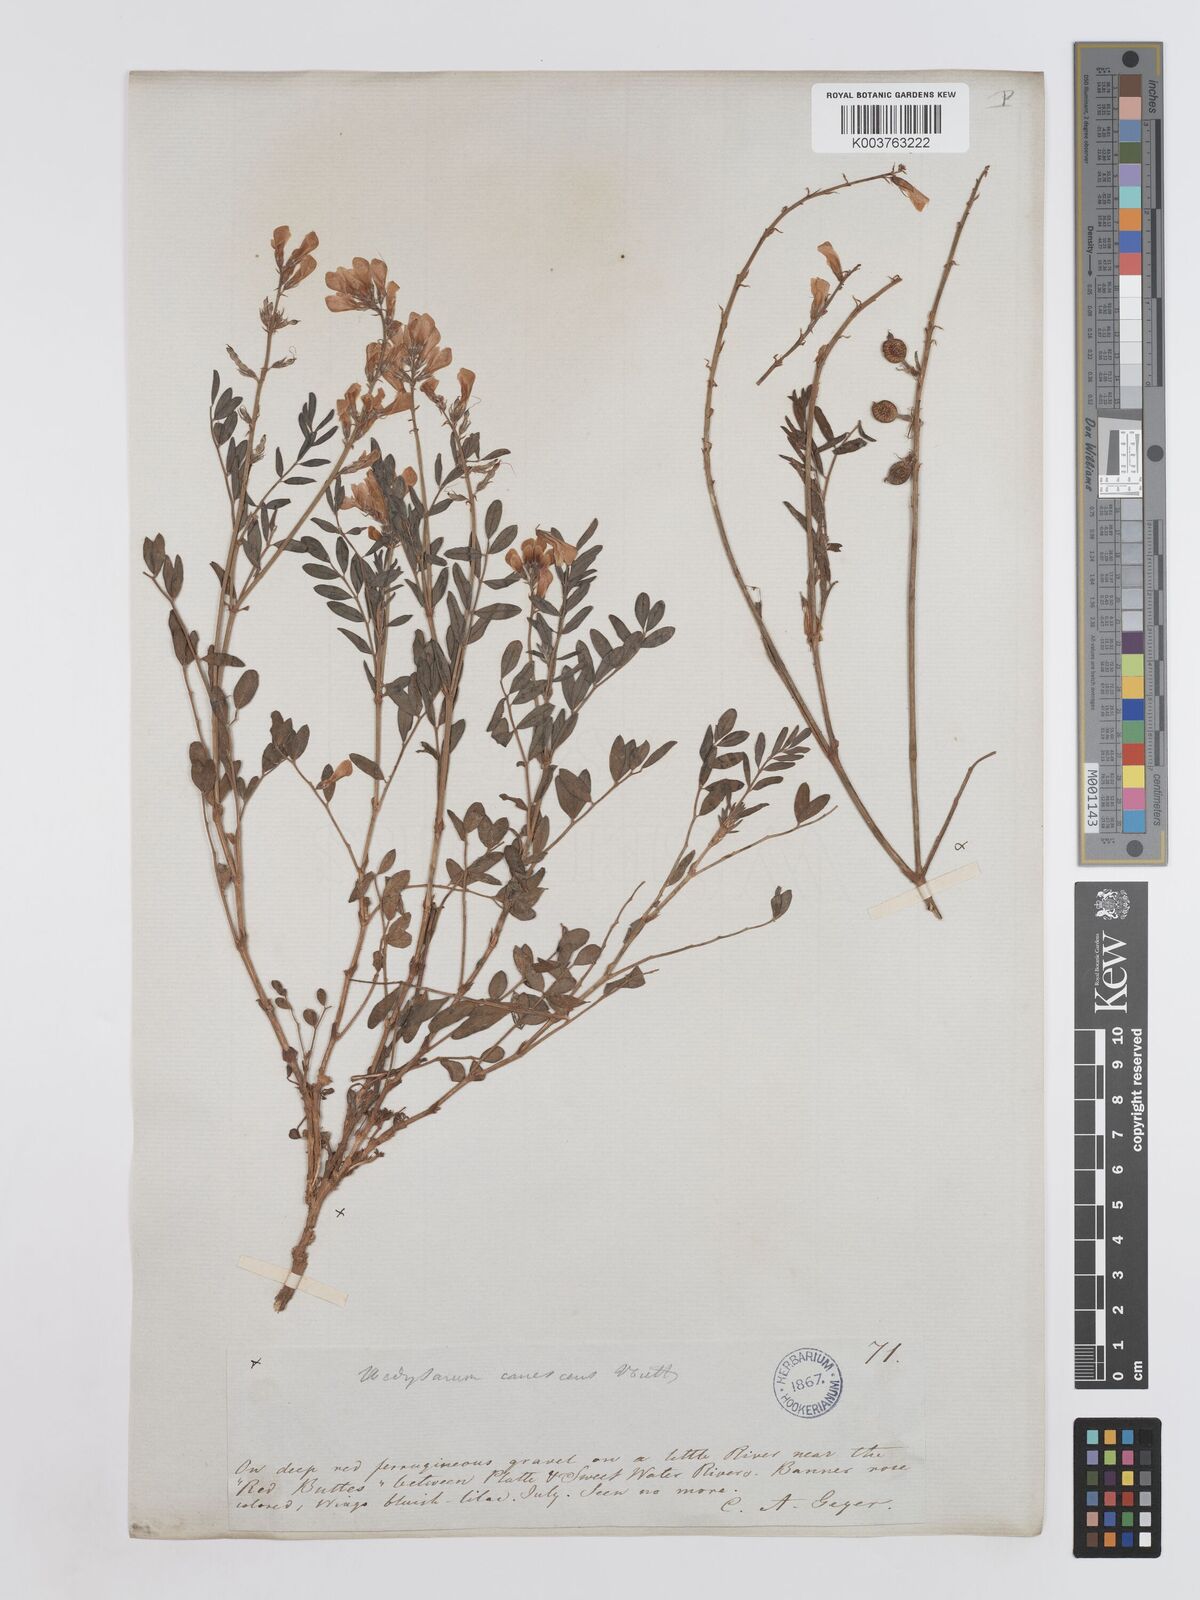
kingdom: Plantae
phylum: Tracheophyta
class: Magnoliopsida
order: Fabales
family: Fabaceae
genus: Hedysarum
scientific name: Hedysarum boreale
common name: Northern sweet-vetch
